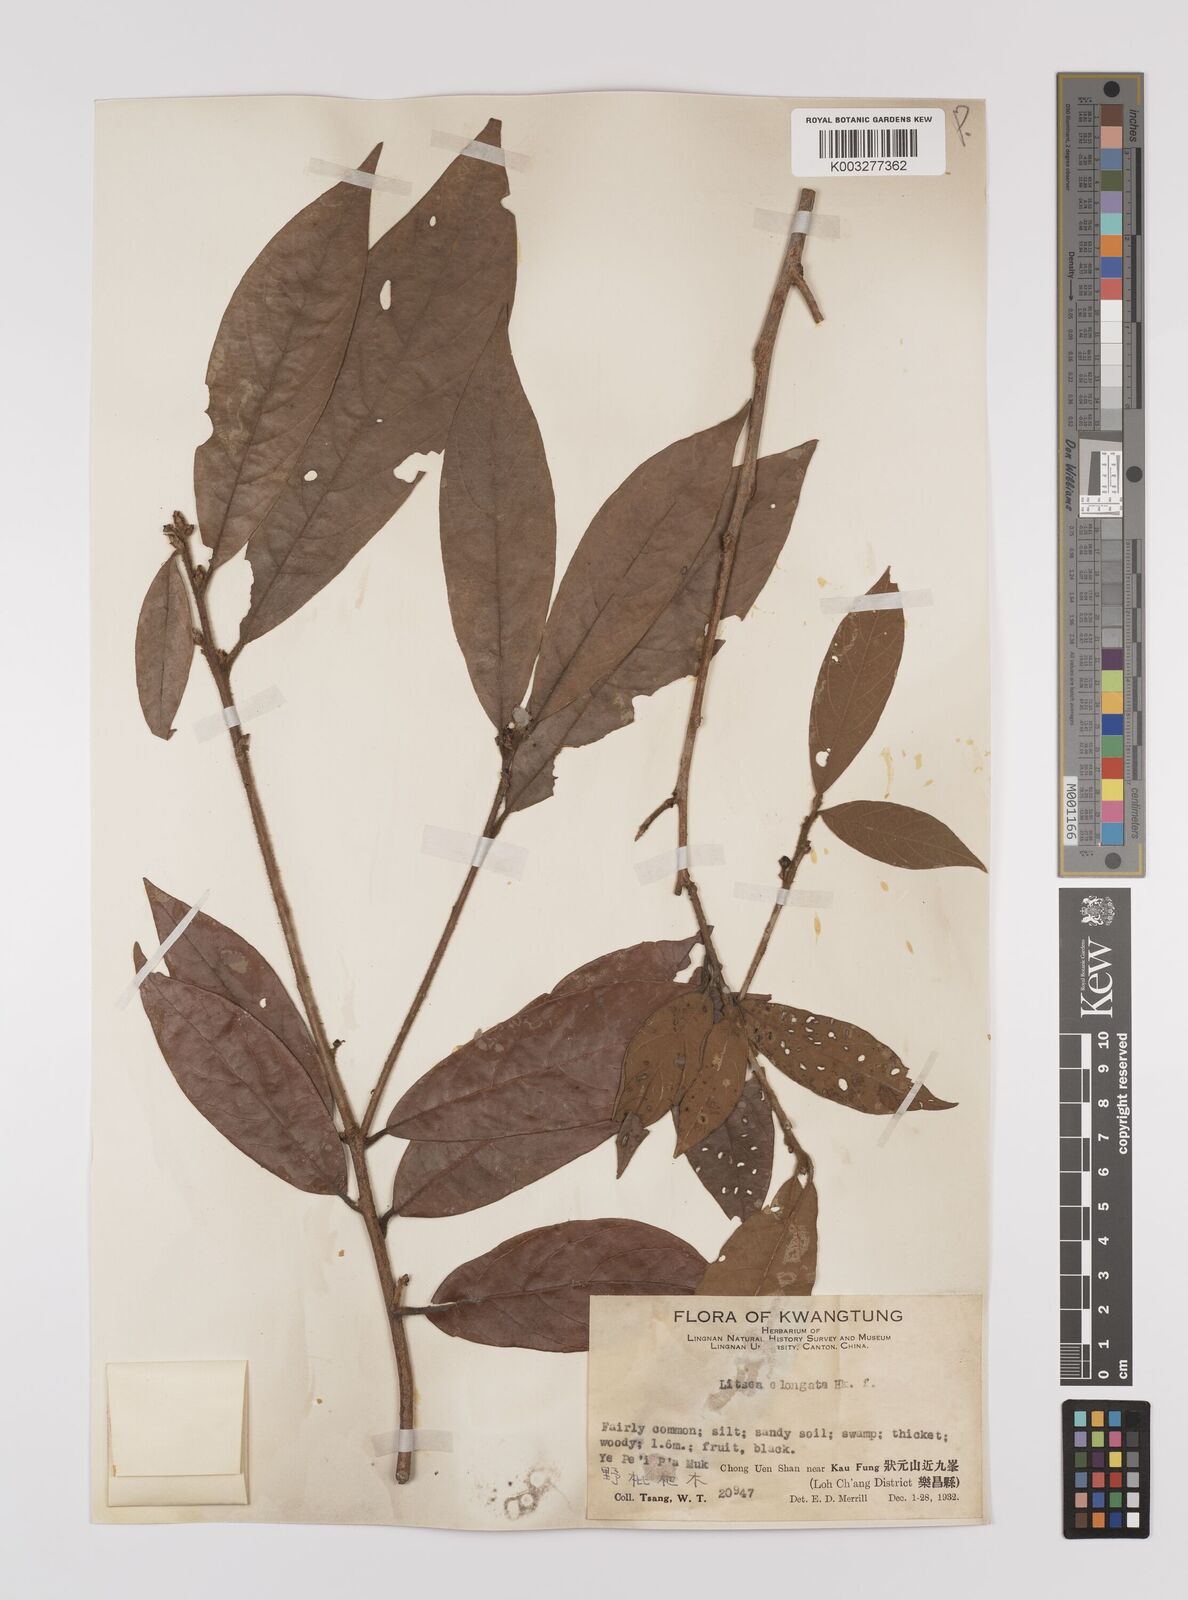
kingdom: Plantae
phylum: Tracheophyta
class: Magnoliopsida
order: Laurales
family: Lauraceae
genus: Litsea
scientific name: Litsea elongata
